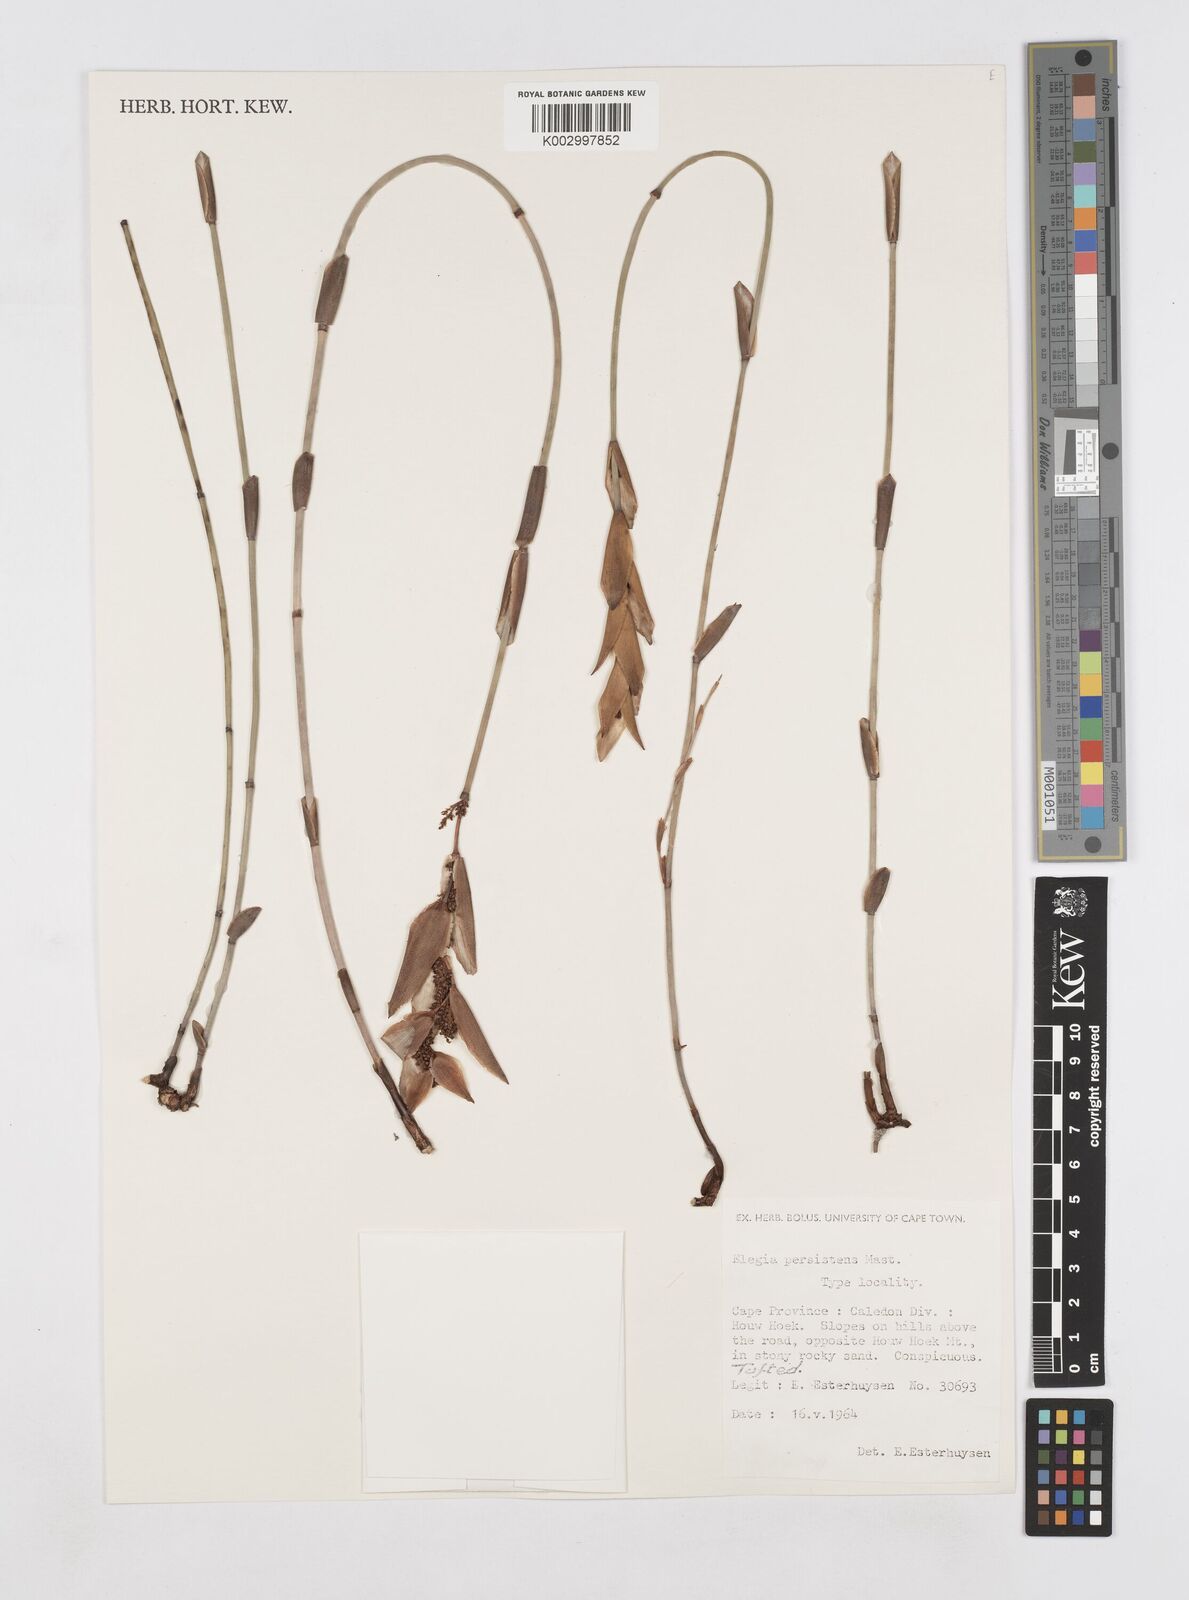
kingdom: Plantae
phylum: Tracheophyta
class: Liliopsida
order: Poales
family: Restionaceae
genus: Elegia
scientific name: Elegia persistens
